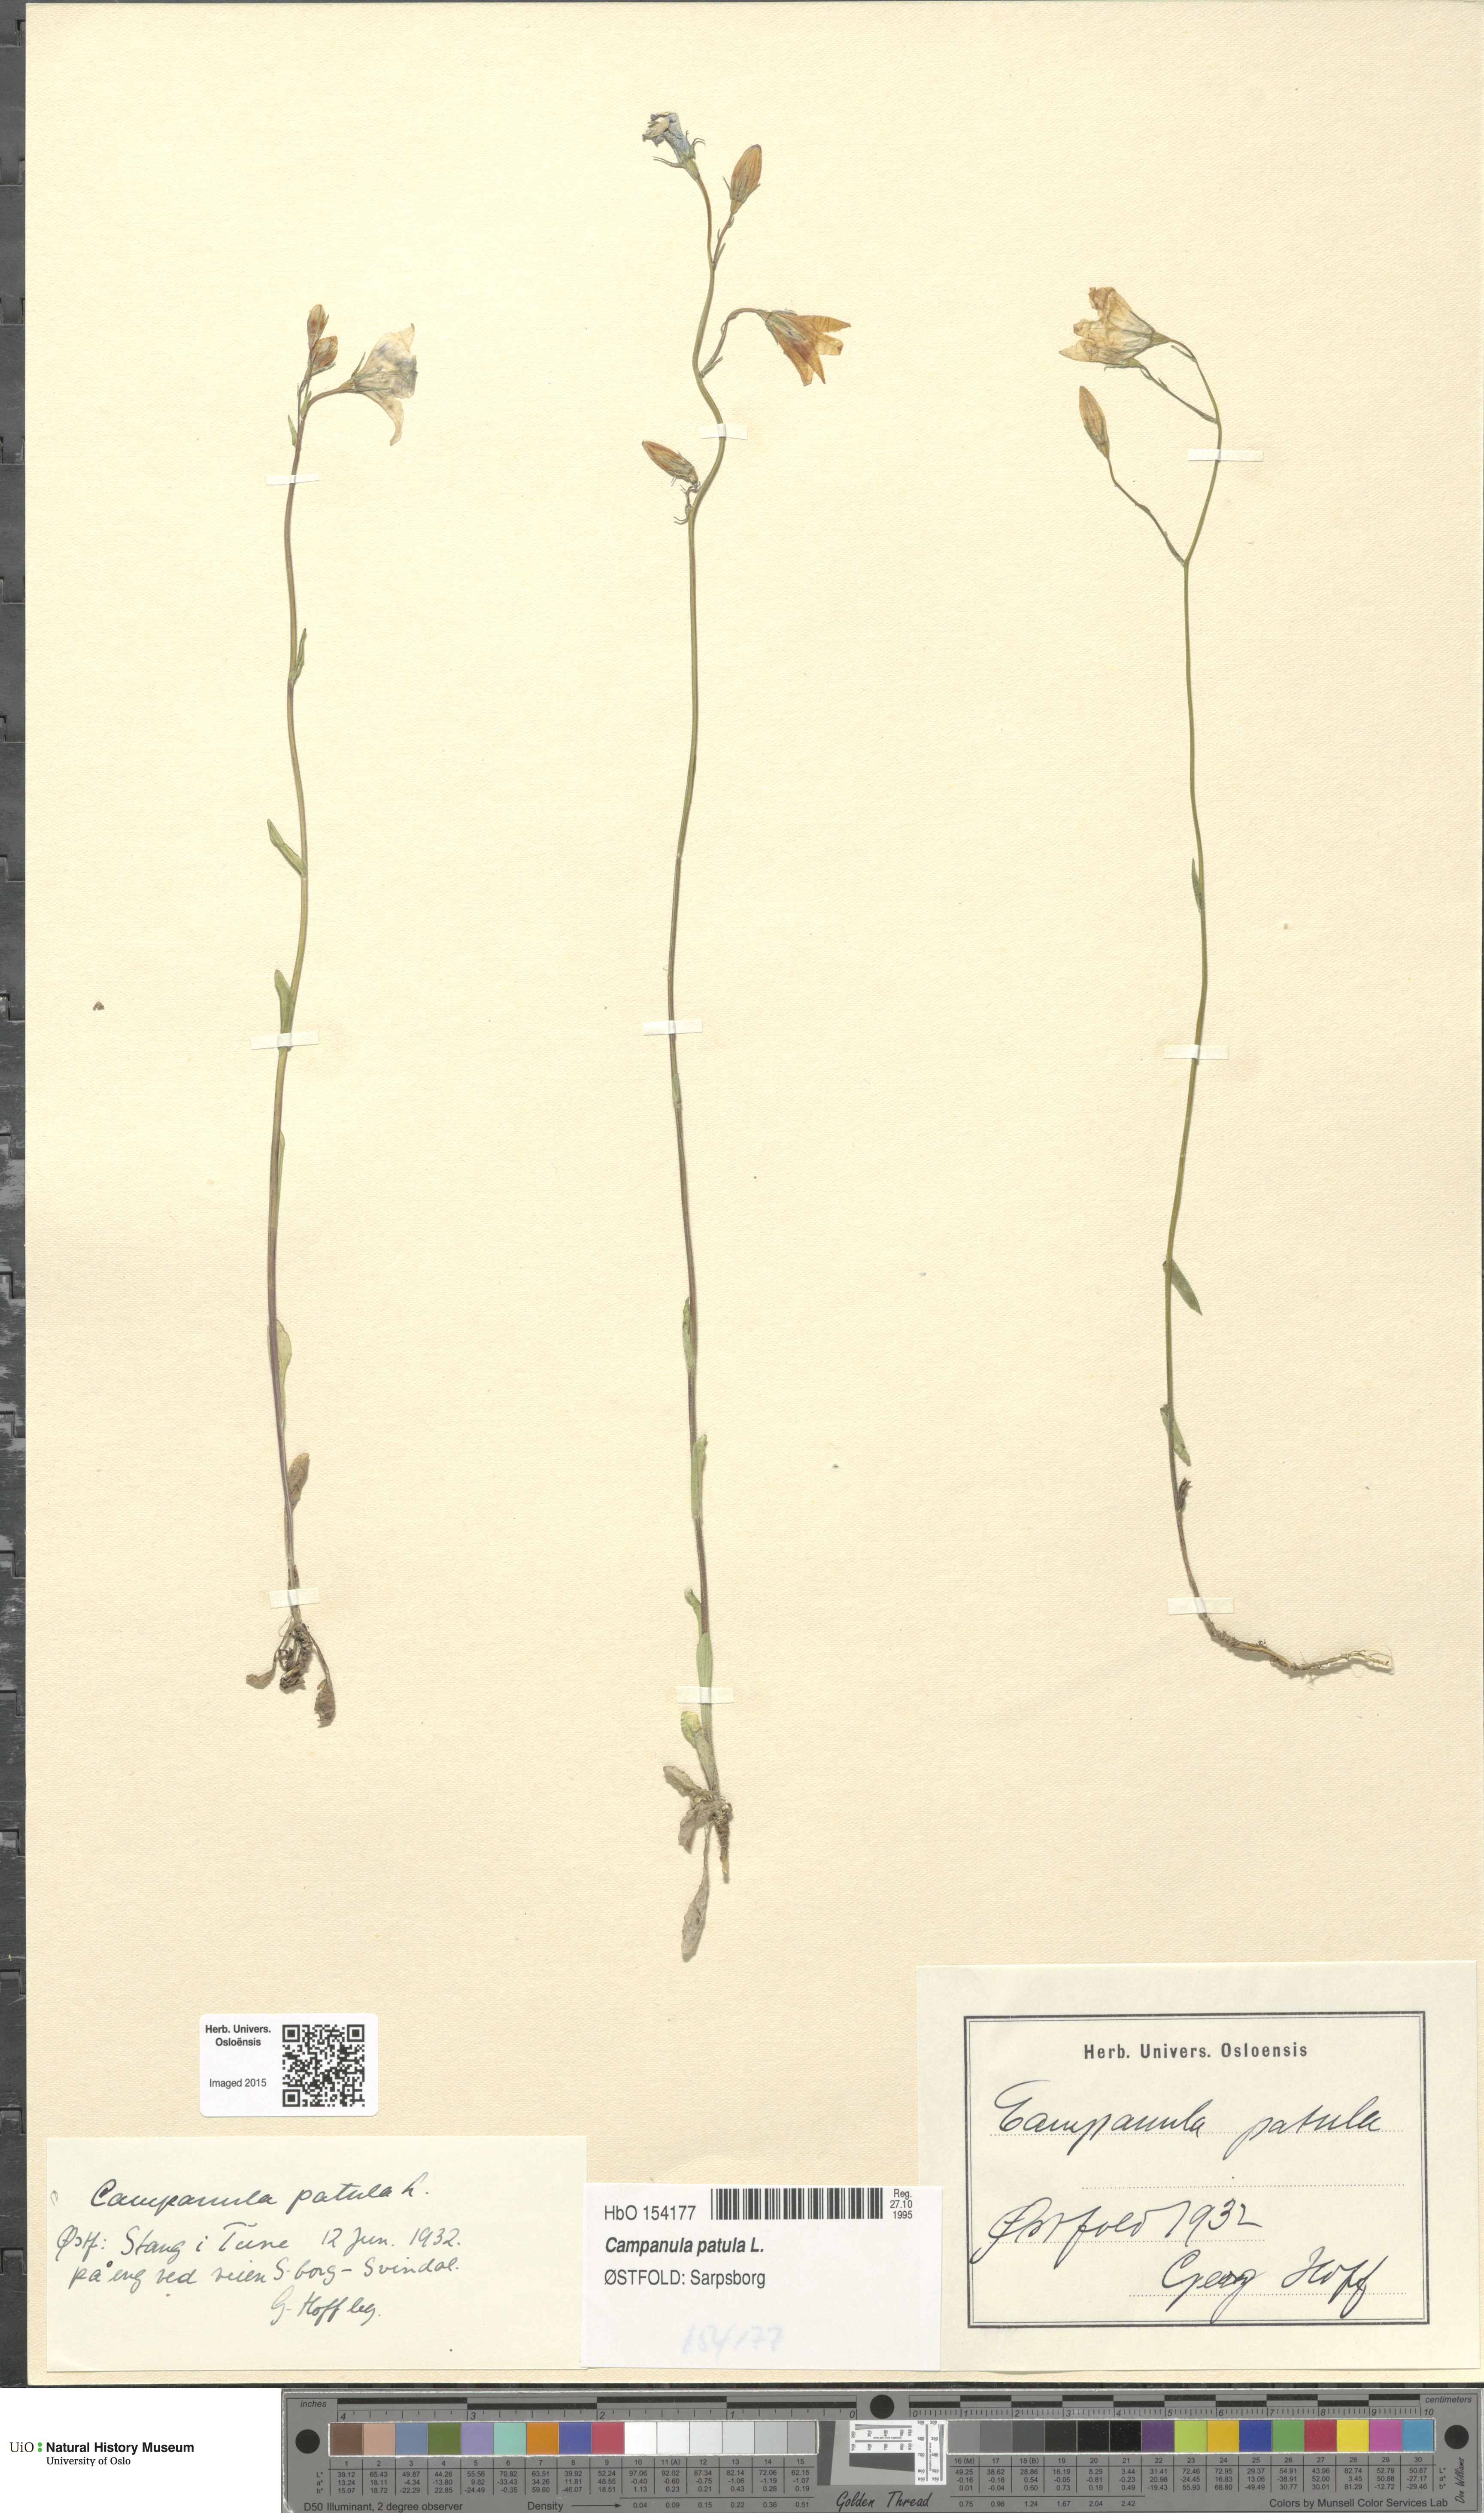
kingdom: Plantae
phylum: Tracheophyta
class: Magnoliopsida
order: Asterales
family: Campanulaceae
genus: Campanula
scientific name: Campanula patula
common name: Spreading bellflower
